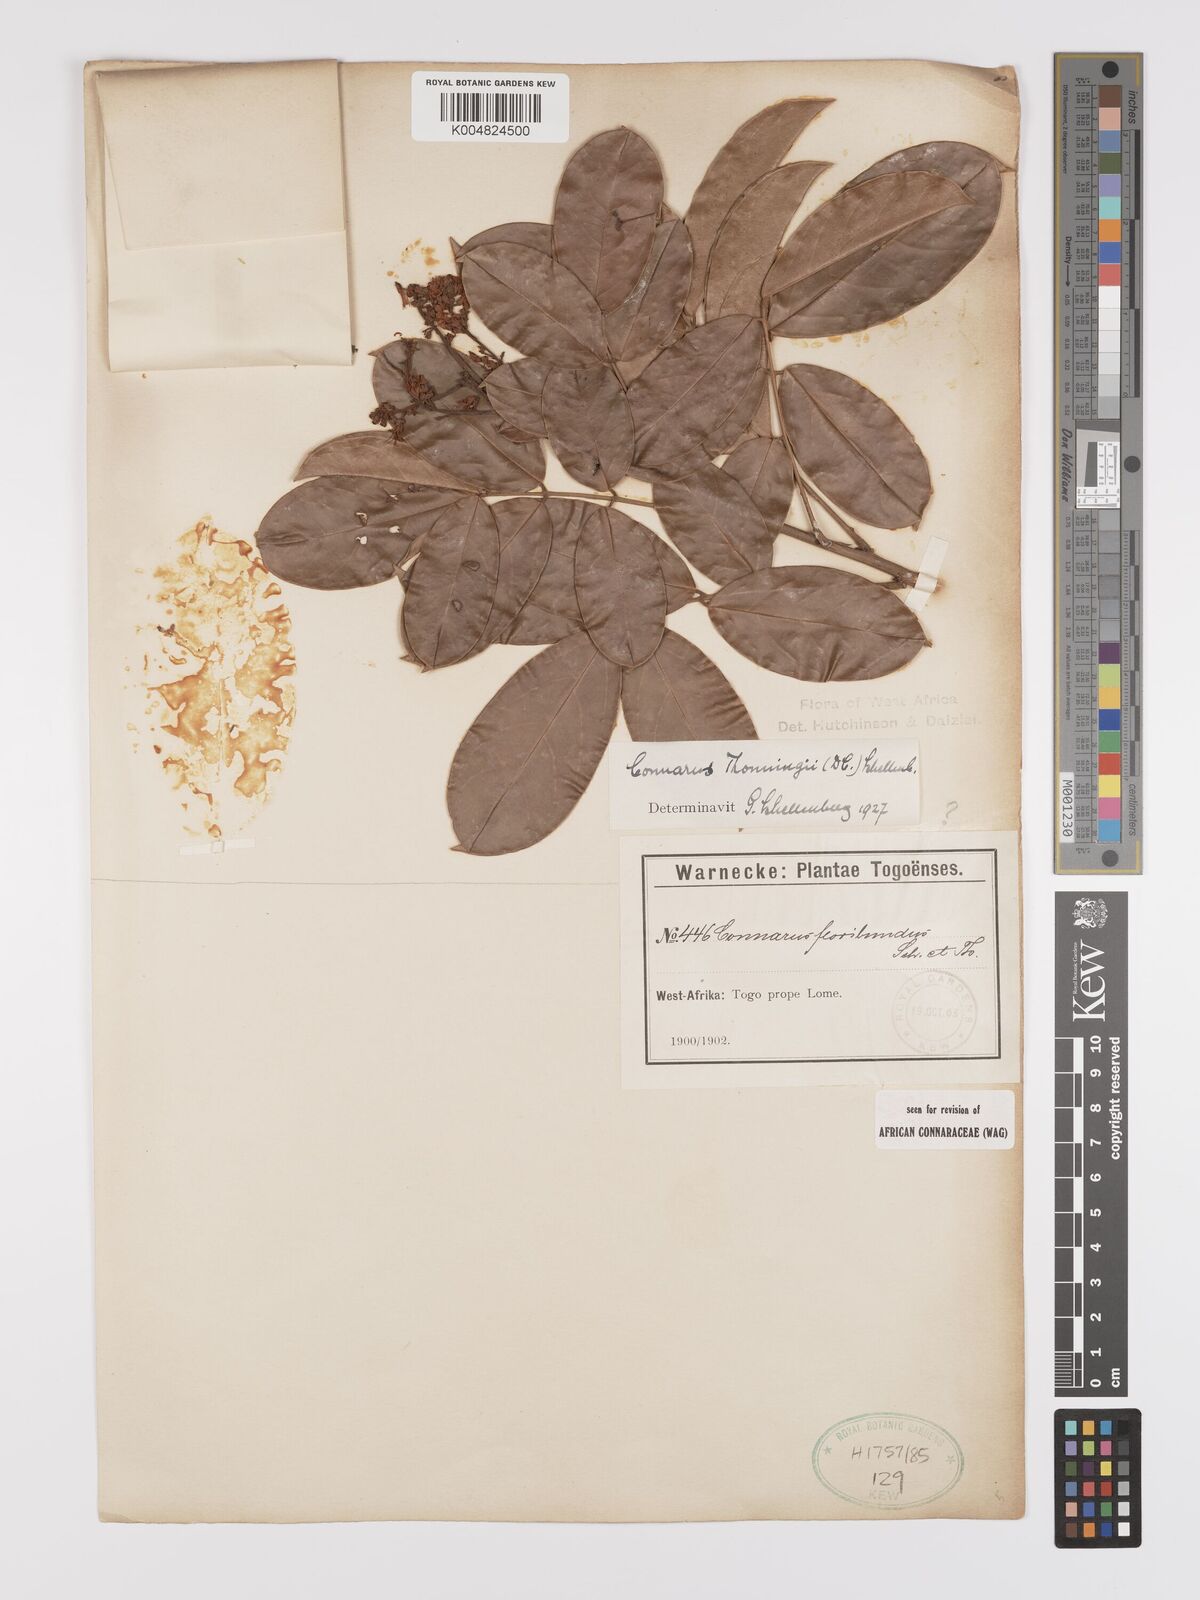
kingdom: Plantae
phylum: Tracheophyta
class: Magnoliopsida
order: Oxalidales
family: Connaraceae
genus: Connarus
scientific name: Connarus thonningii
